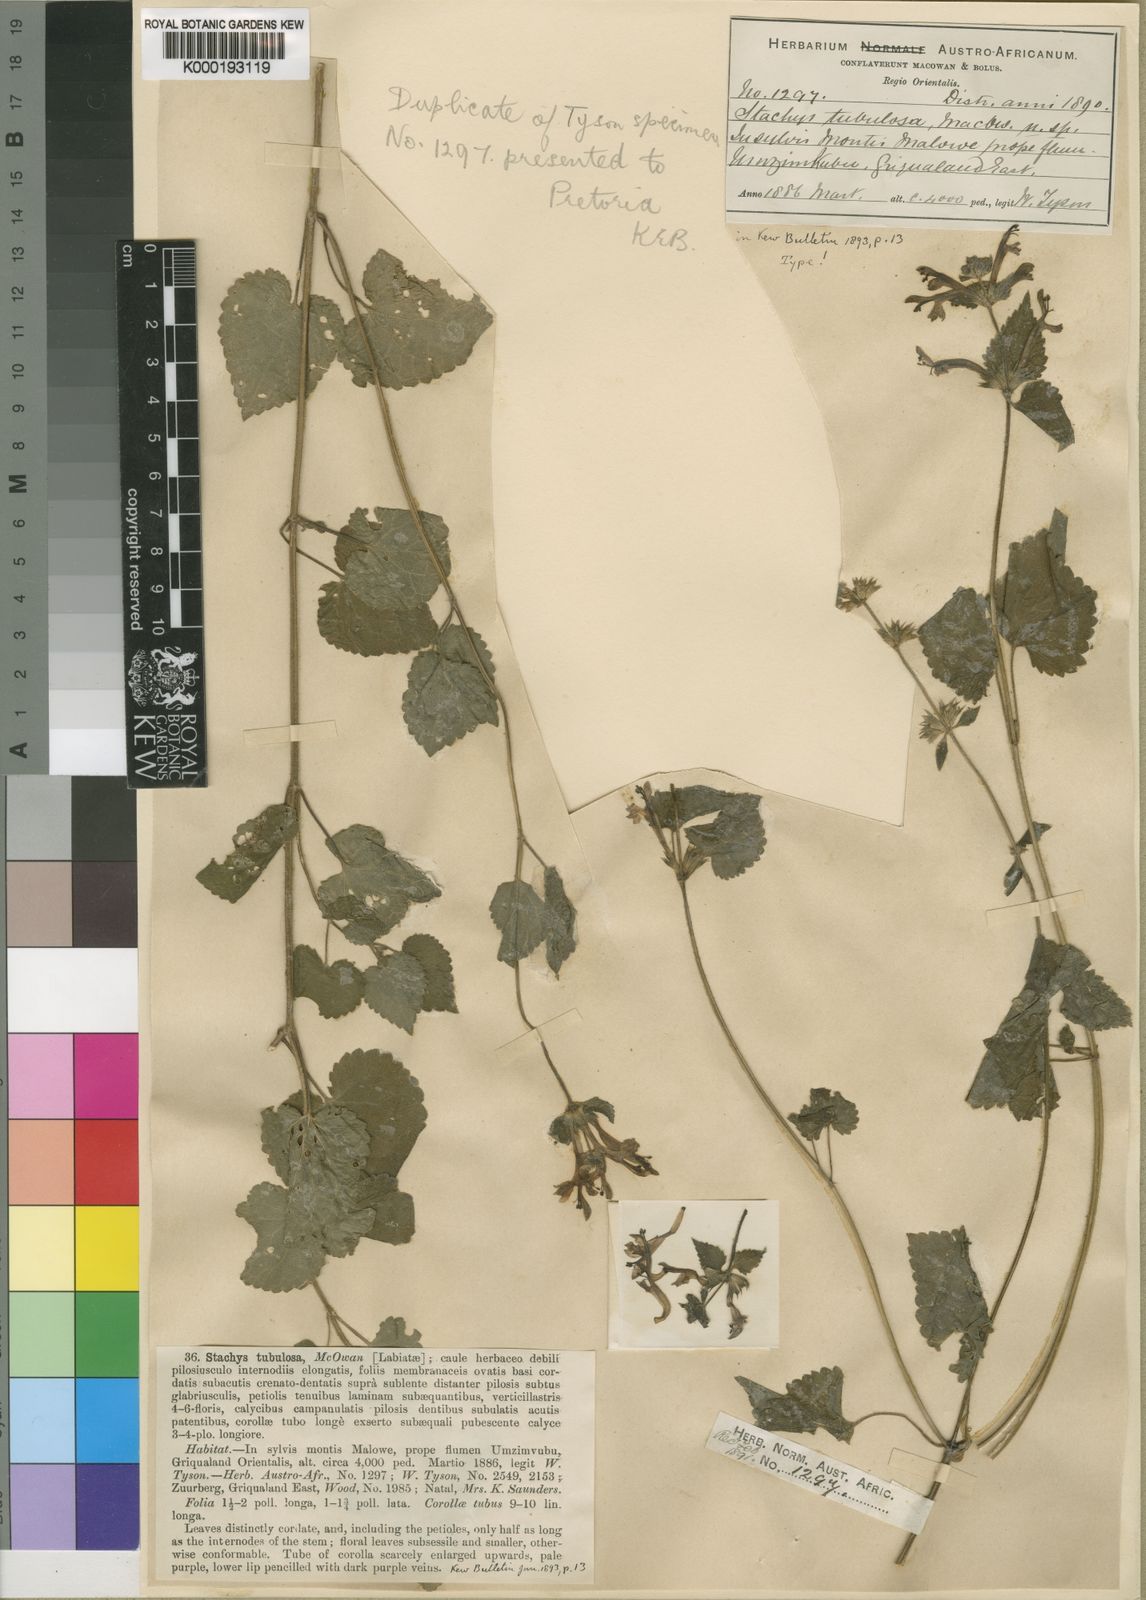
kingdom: Plantae
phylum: Tracheophyta
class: Magnoliopsida
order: Lamiales
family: Lamiaceae
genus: Stachys
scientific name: Stachys tubulosa
